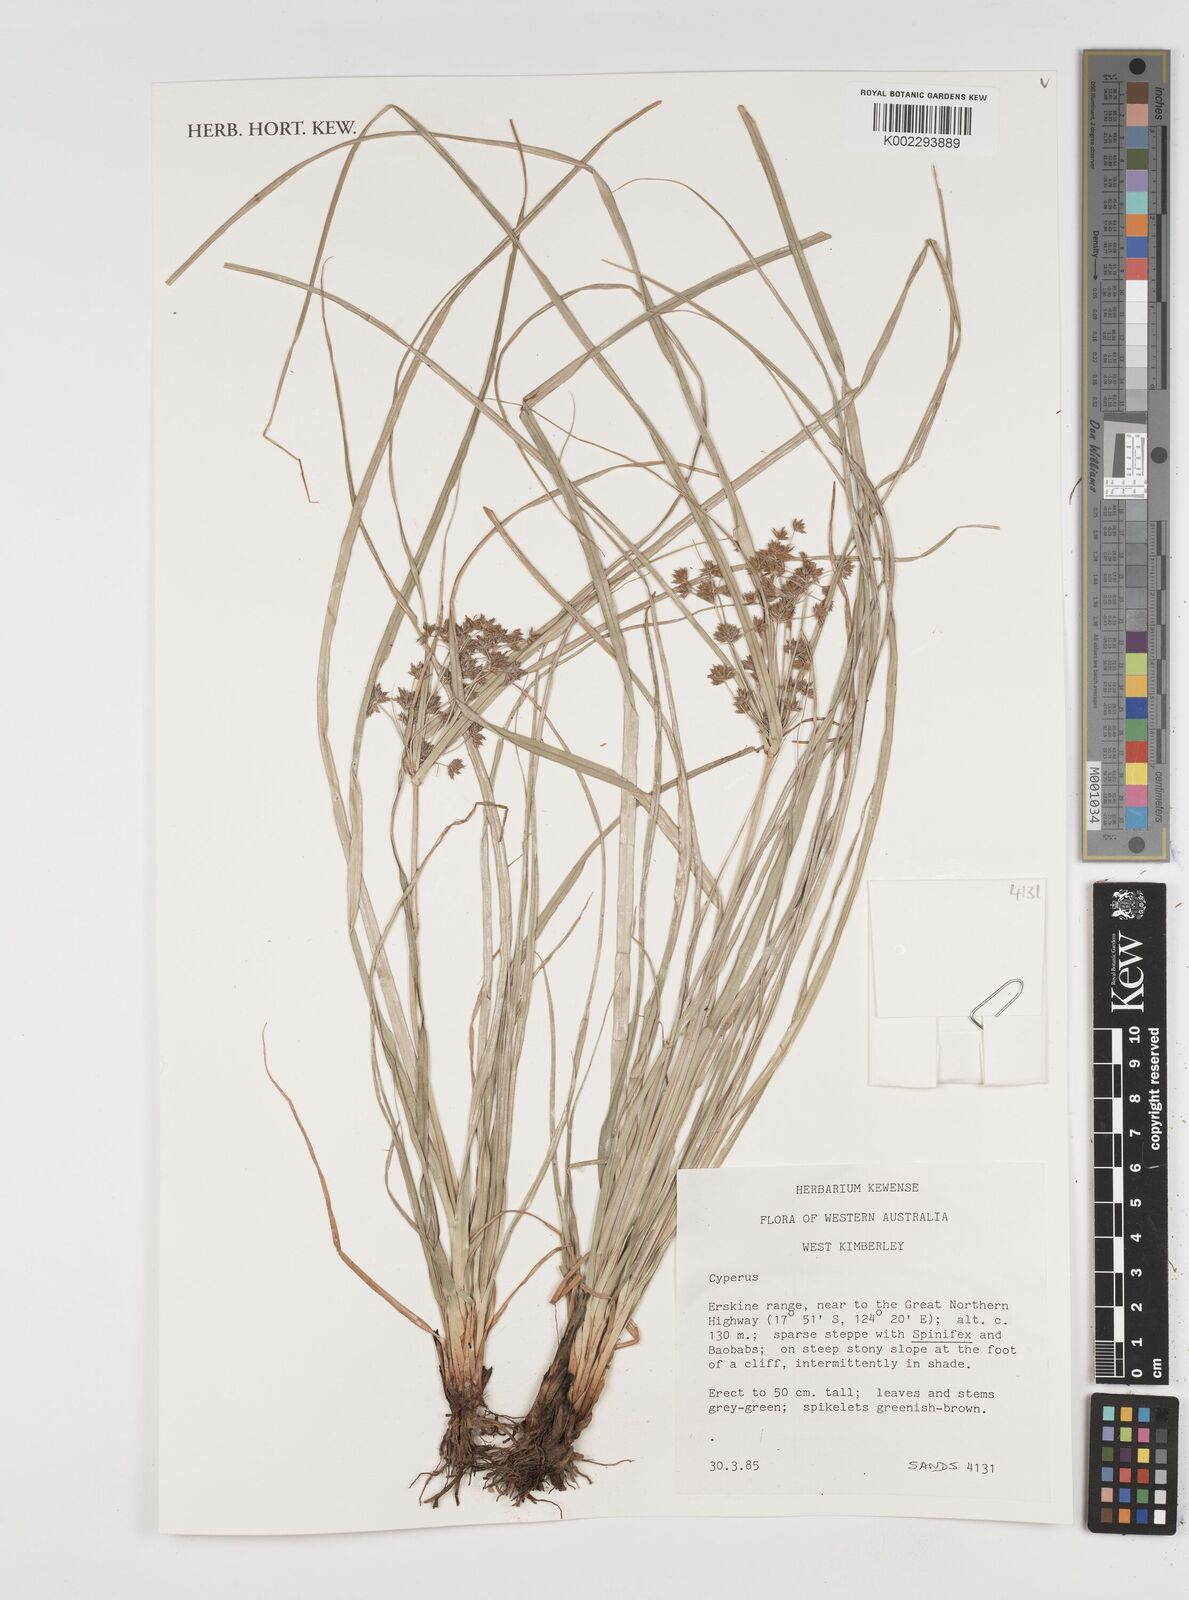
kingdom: Plantae
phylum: Tracheophyta
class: Liliopsida
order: Poales
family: Cyperaceae
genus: Cyperus
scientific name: Cyperus
